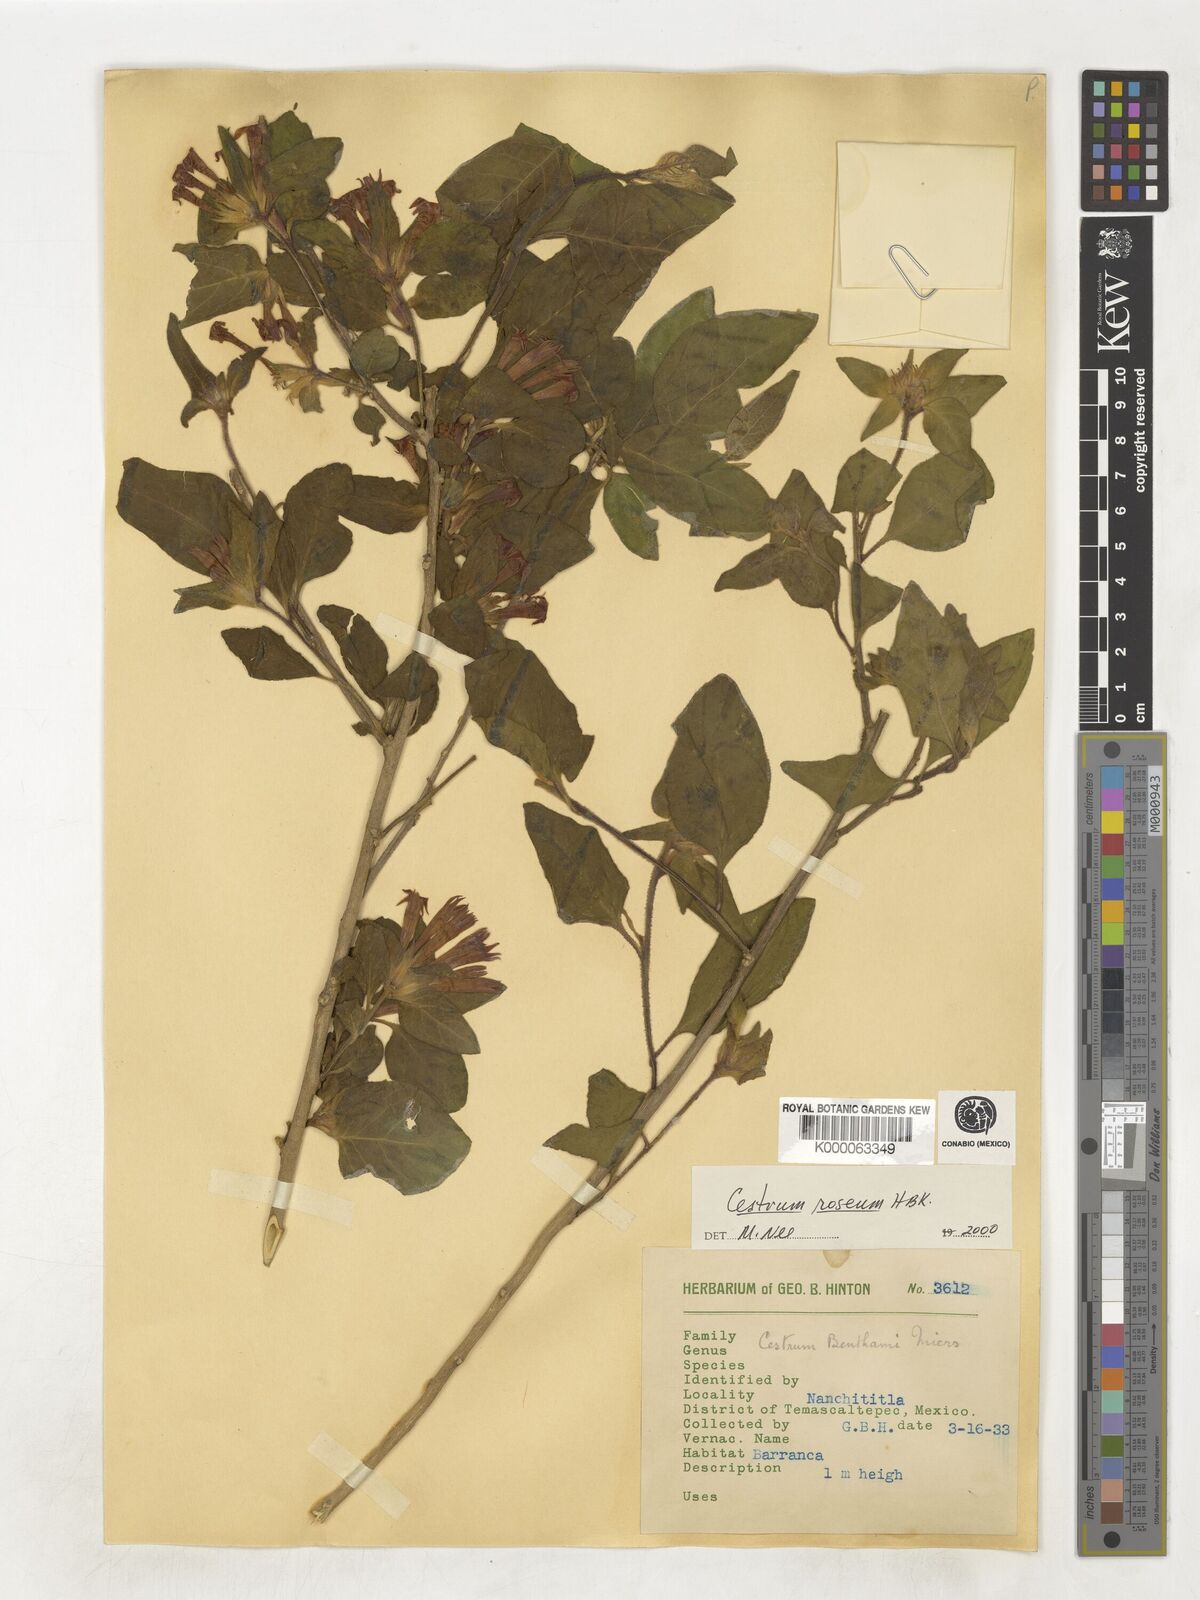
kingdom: Plantae
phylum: Tracheophyta
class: Magnoliopsida
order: Solanales
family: Solanaceae
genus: Cestrum
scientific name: Cestrum
